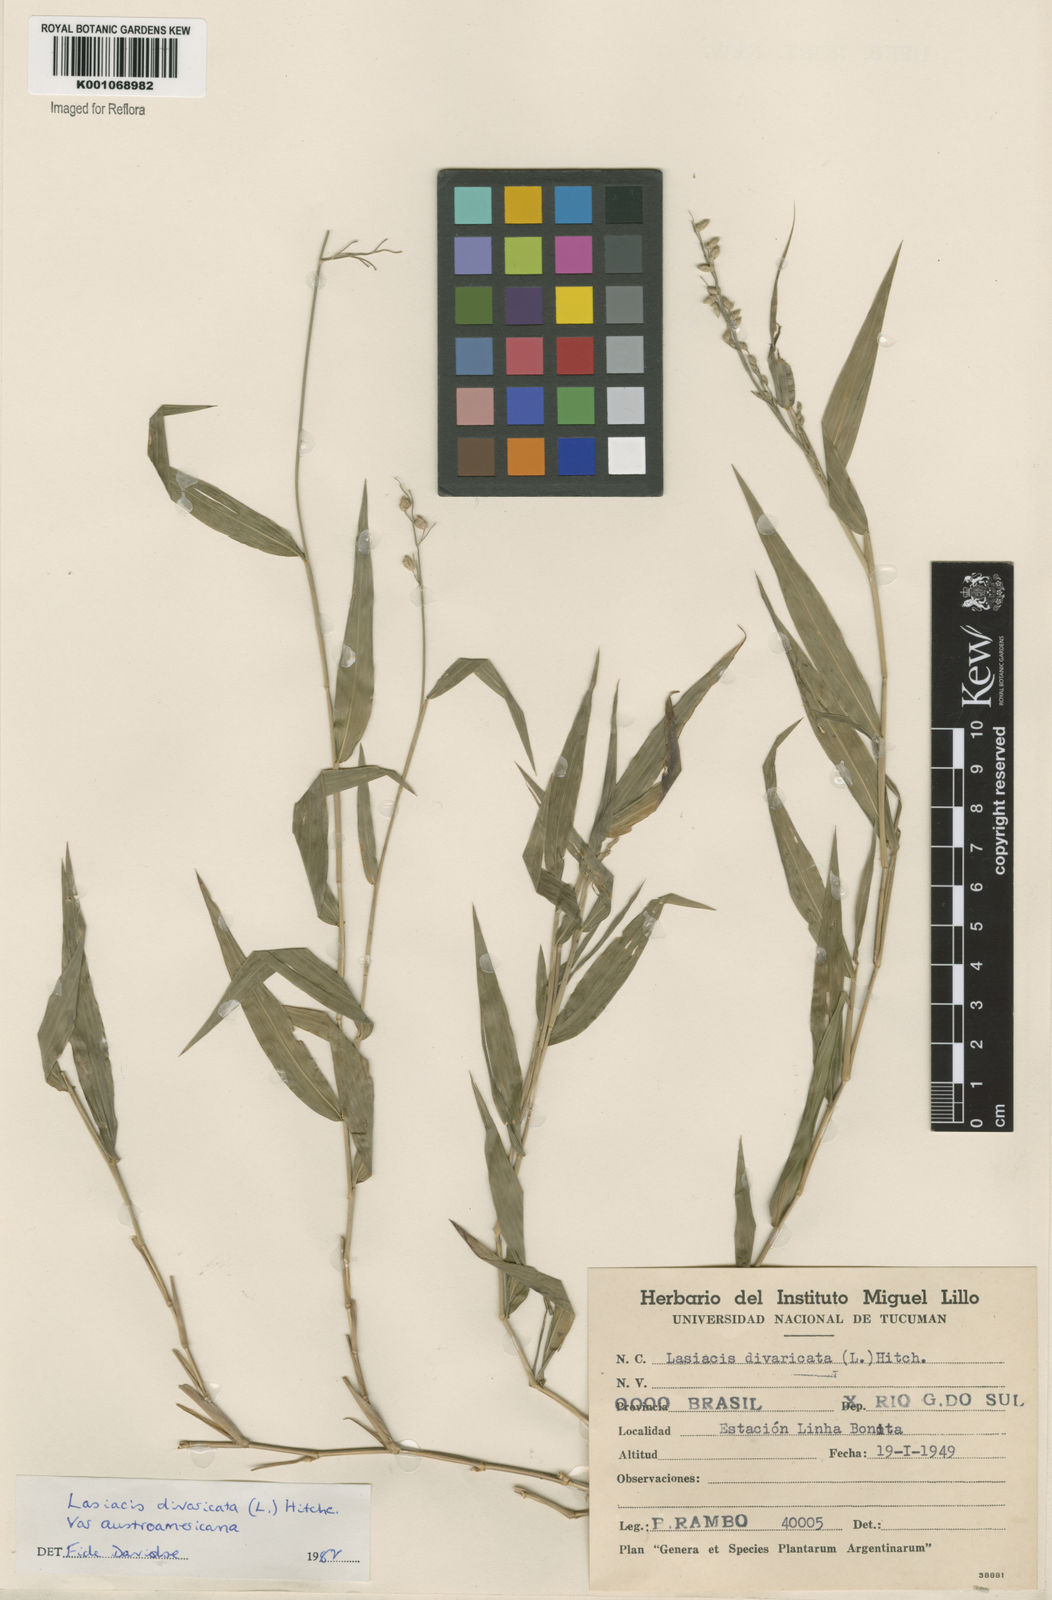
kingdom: Plantae
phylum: Tracheophyta
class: Liliopsida
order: Poales
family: Poaceae
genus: Lasiacis
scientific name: Lasiacis divaricata
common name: Smallcane
